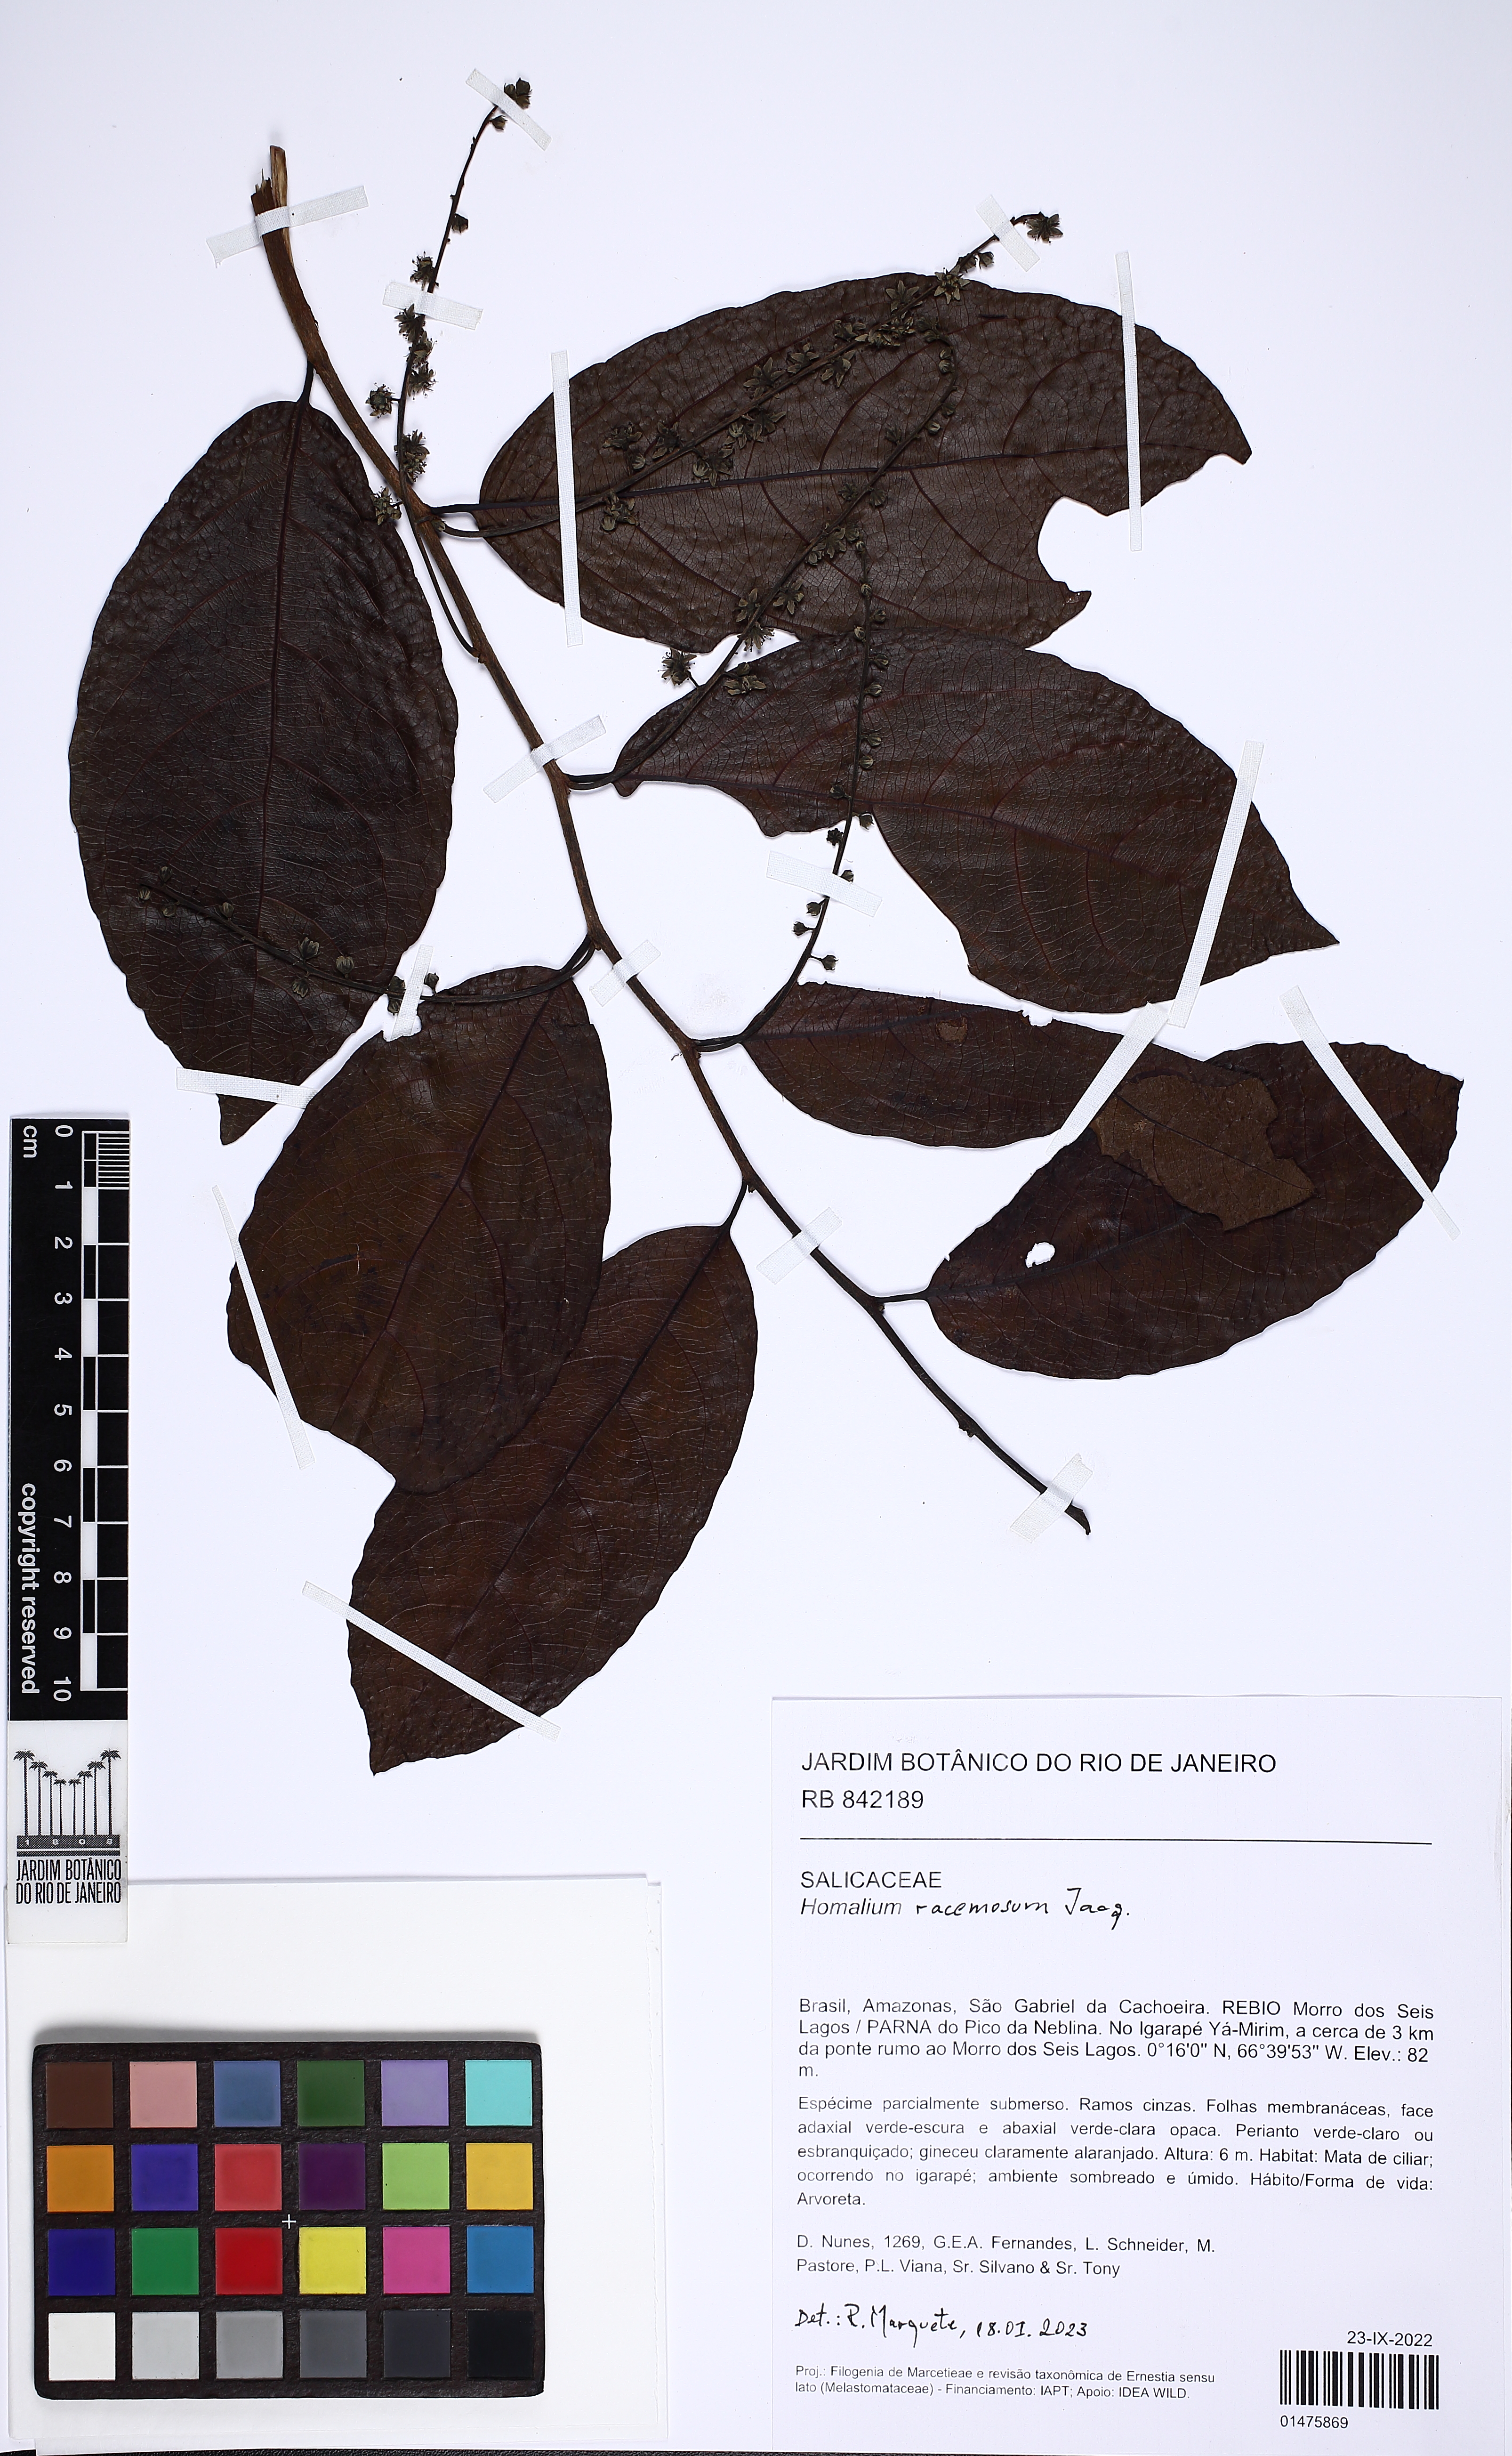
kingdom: Plantae
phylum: Tracheophyta
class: Magnoliopsida
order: Malpighiales
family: Salicaceae
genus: Homalium
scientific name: Homalium racemosum
